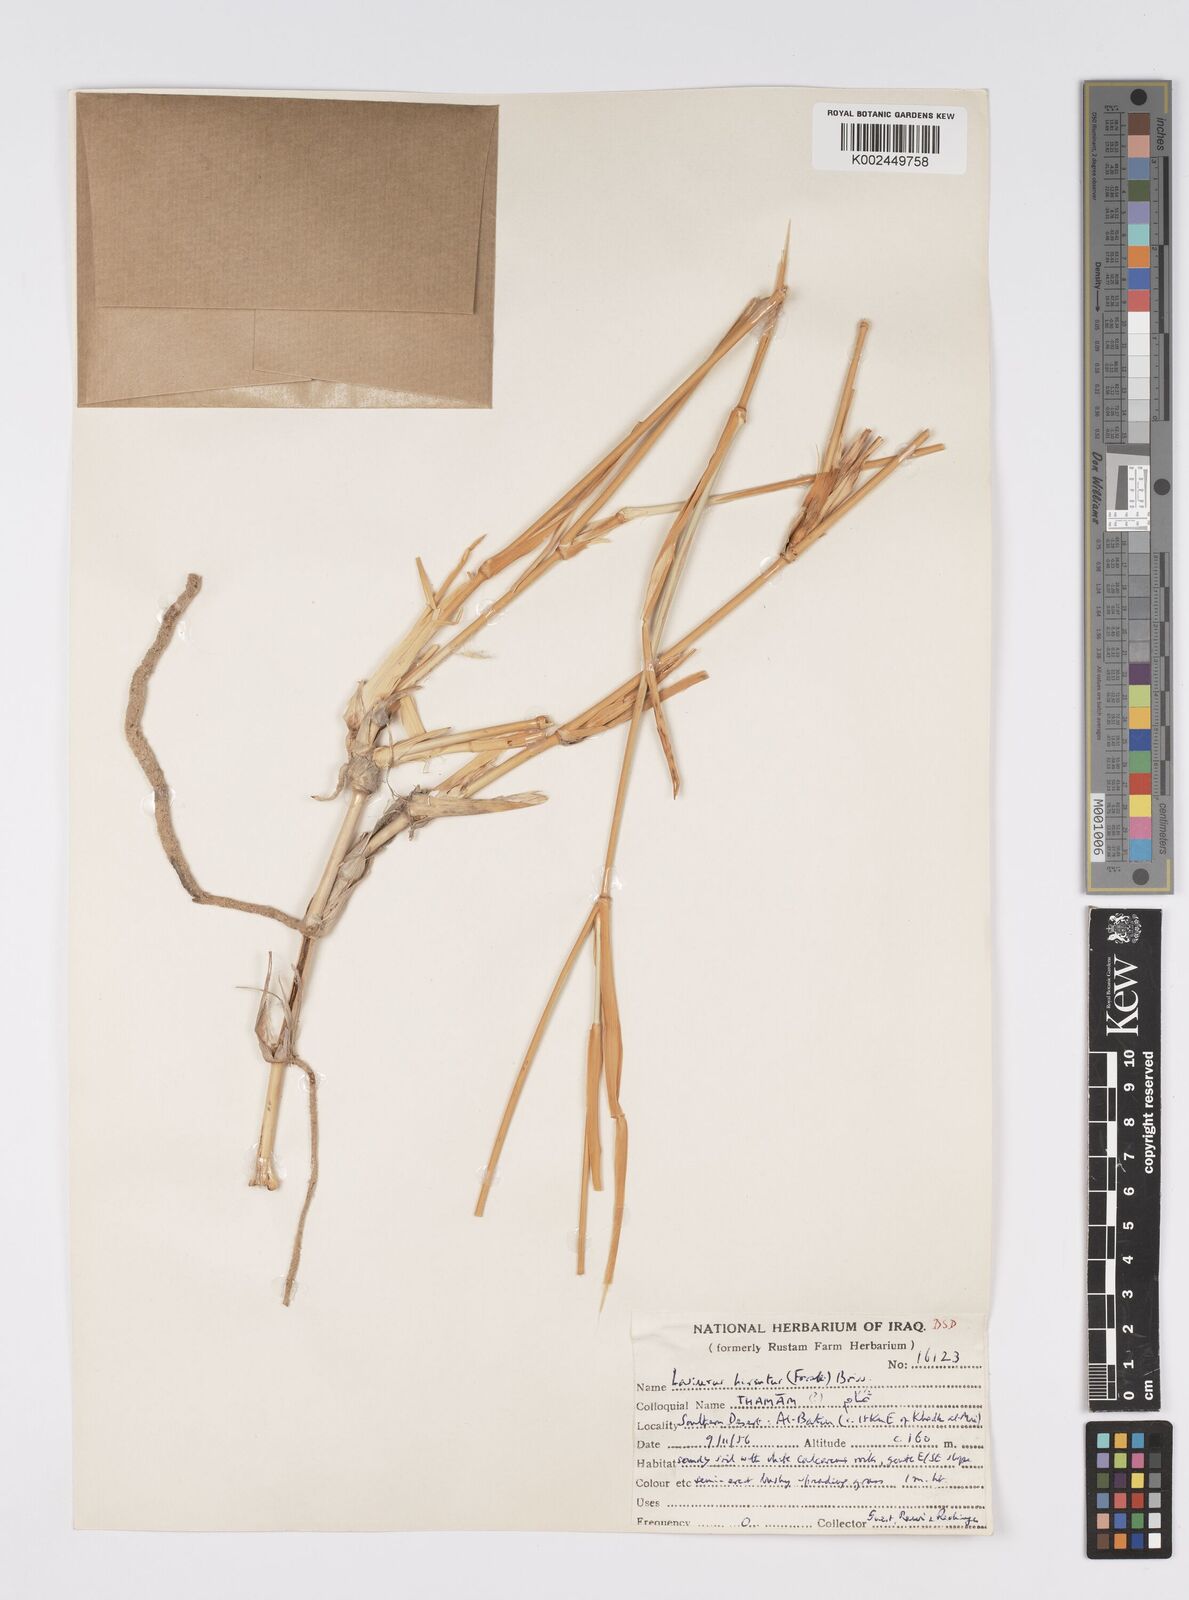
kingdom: Plantae
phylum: Tracheophyta
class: Liliopsida
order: Poales
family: Poaceae
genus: Lasiurus
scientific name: Lasiurus scindicus
